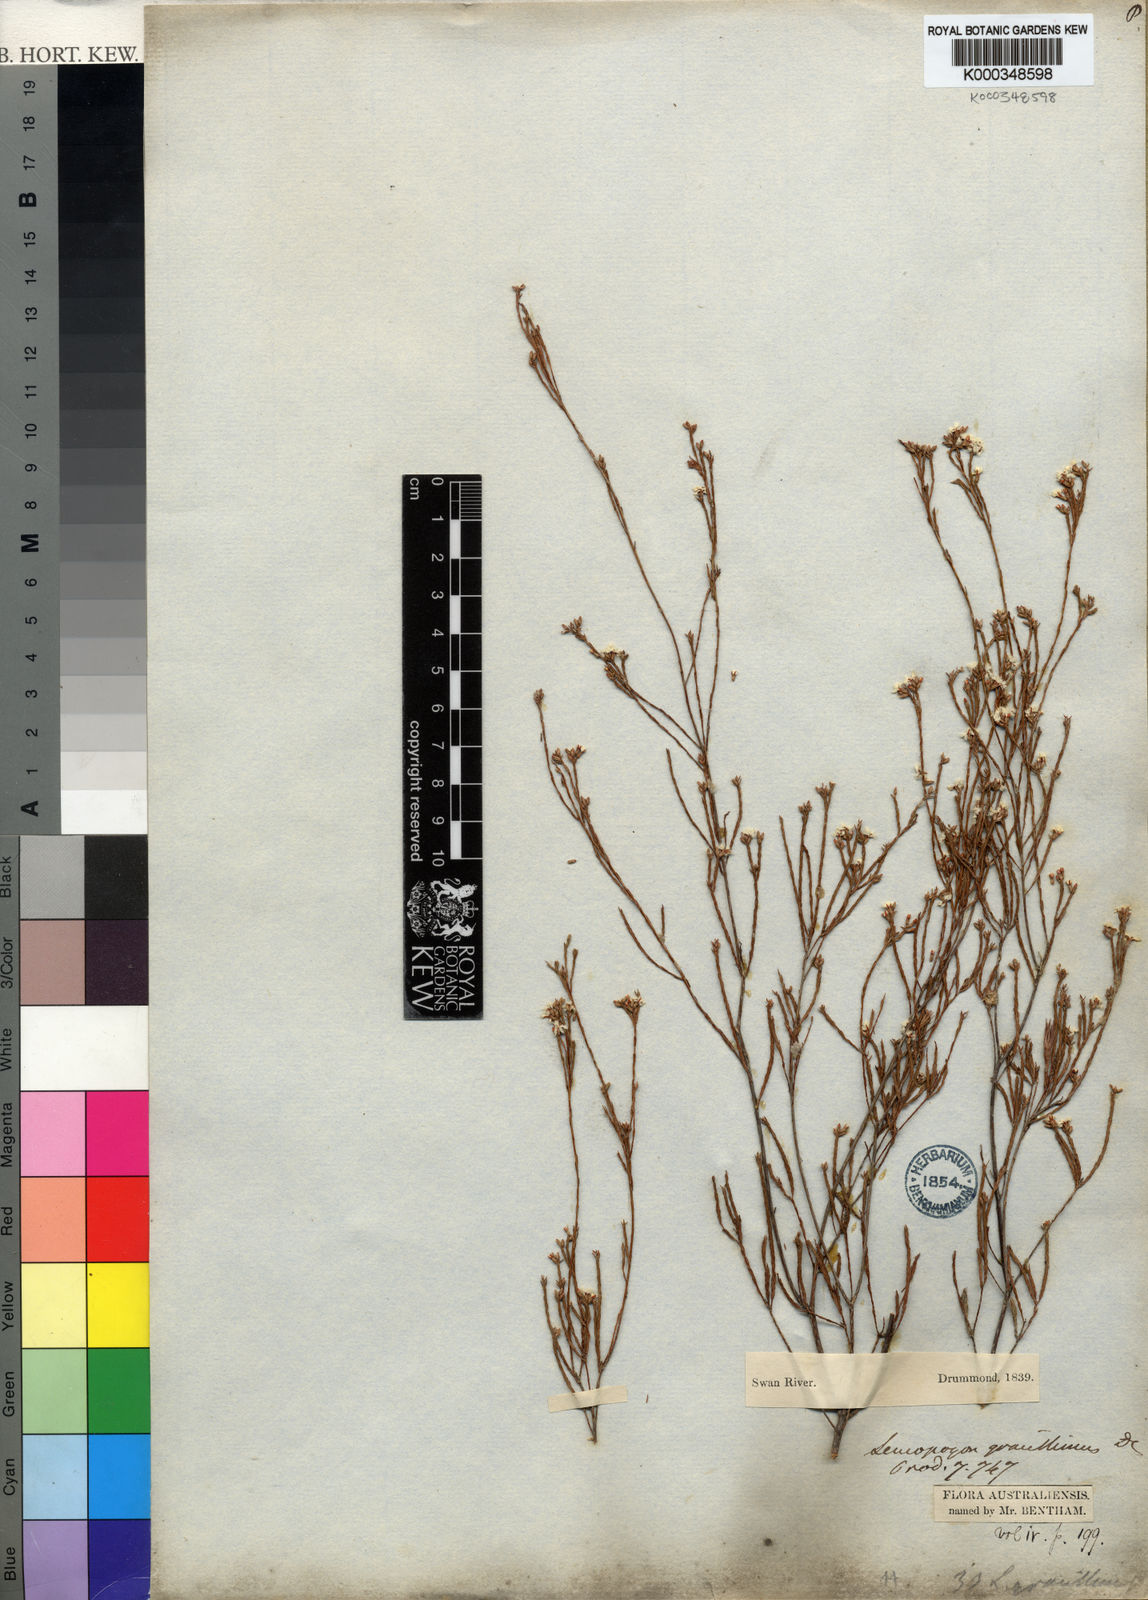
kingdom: Plantae
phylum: Tracheophyta
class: Magnoliopsida
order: Ericales
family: Ericaceae
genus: Leucopogon
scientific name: Leucopogon gracillimus
